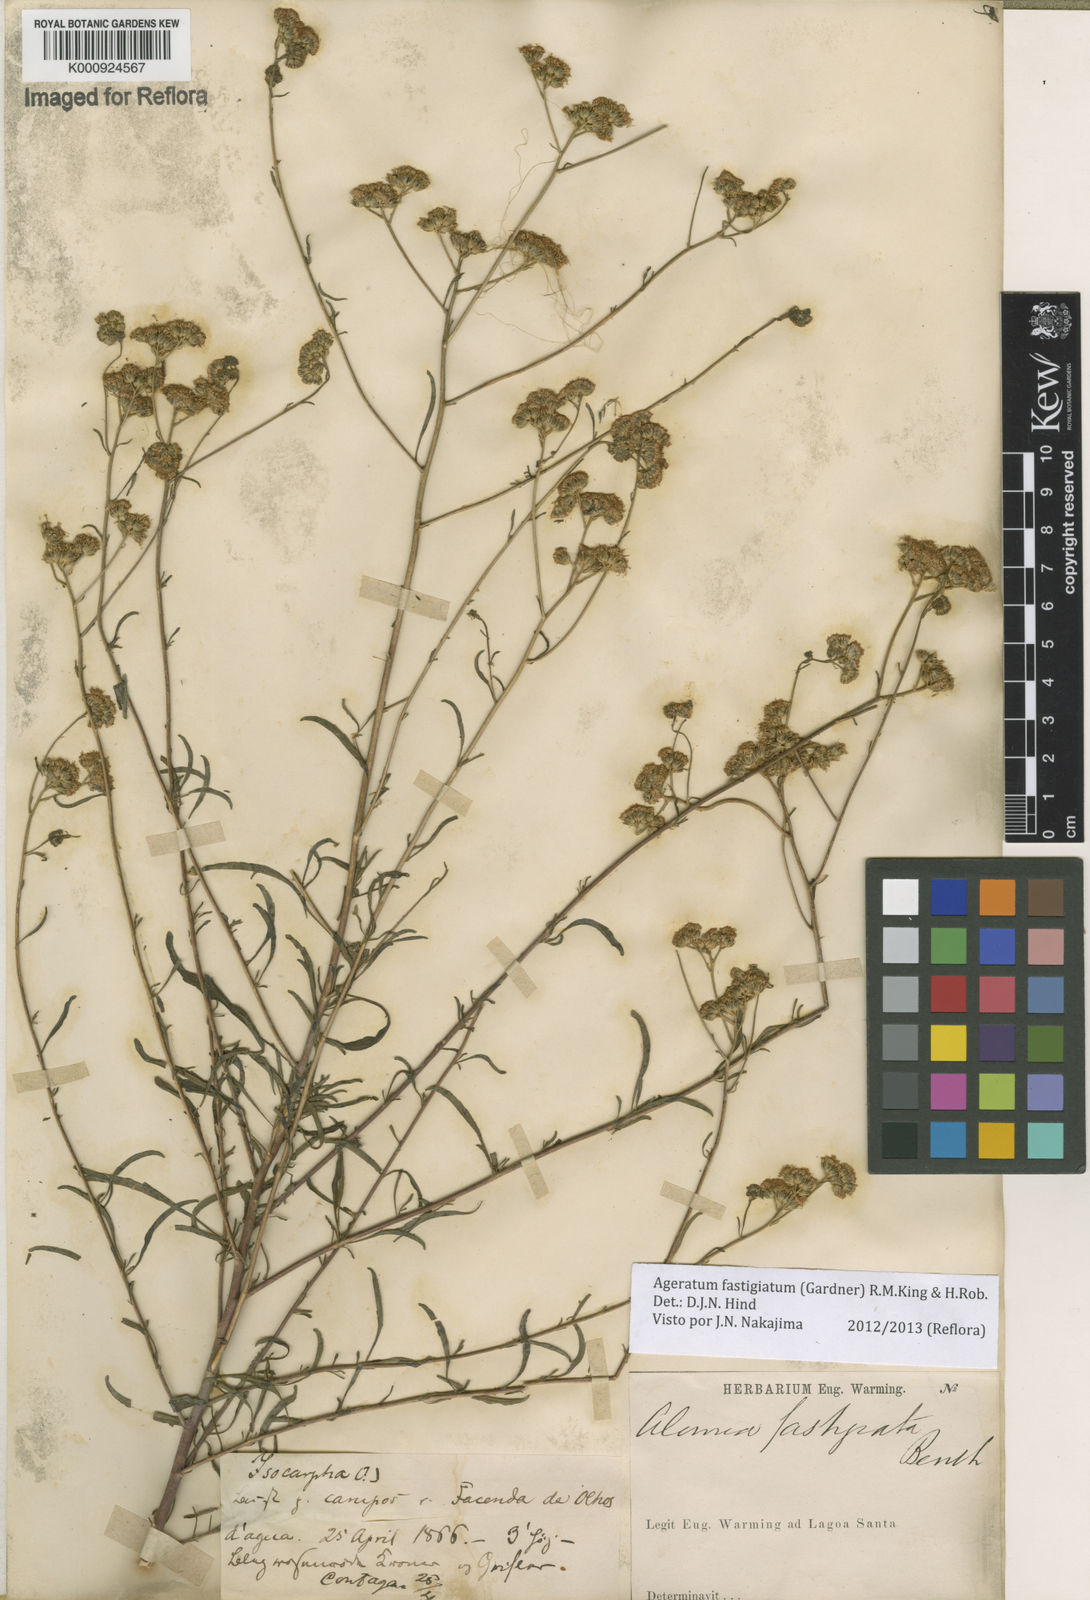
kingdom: Plantae
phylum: Tracheophyta
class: Magnoliopsida
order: Asterales
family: Asteraceae
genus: Ageratum
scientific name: Ageratum fastigiatum
